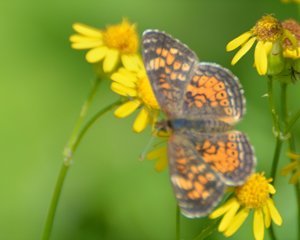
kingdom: Animalia
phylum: Arthropoda
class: Insecta
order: Lepidoptera
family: Nymphalidae
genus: Phyciodes
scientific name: Phyciodes tharos
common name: Northern Crescent
